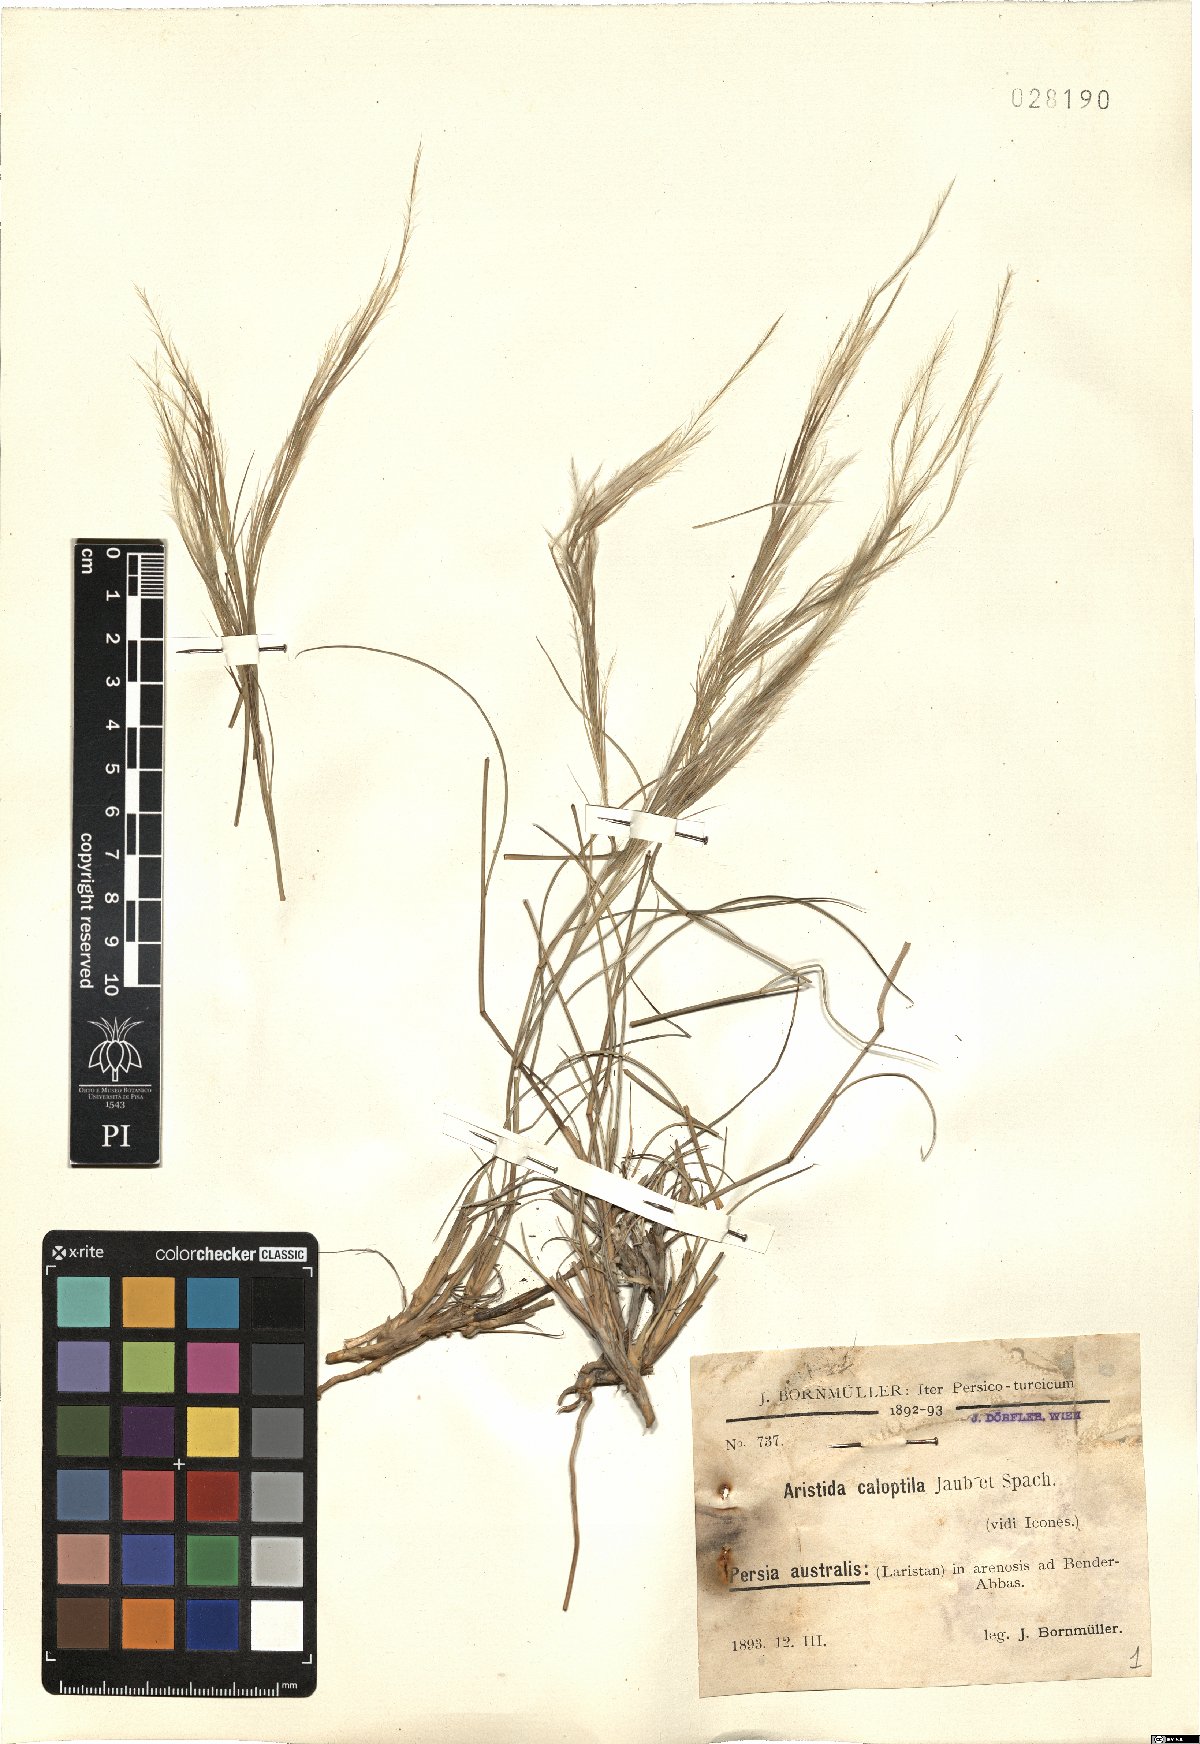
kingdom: Plantae
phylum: Tracheophyta
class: Liliopsida
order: Poales
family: Poaceae
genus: Stipagrostis
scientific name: Stipagrostis paradisea
